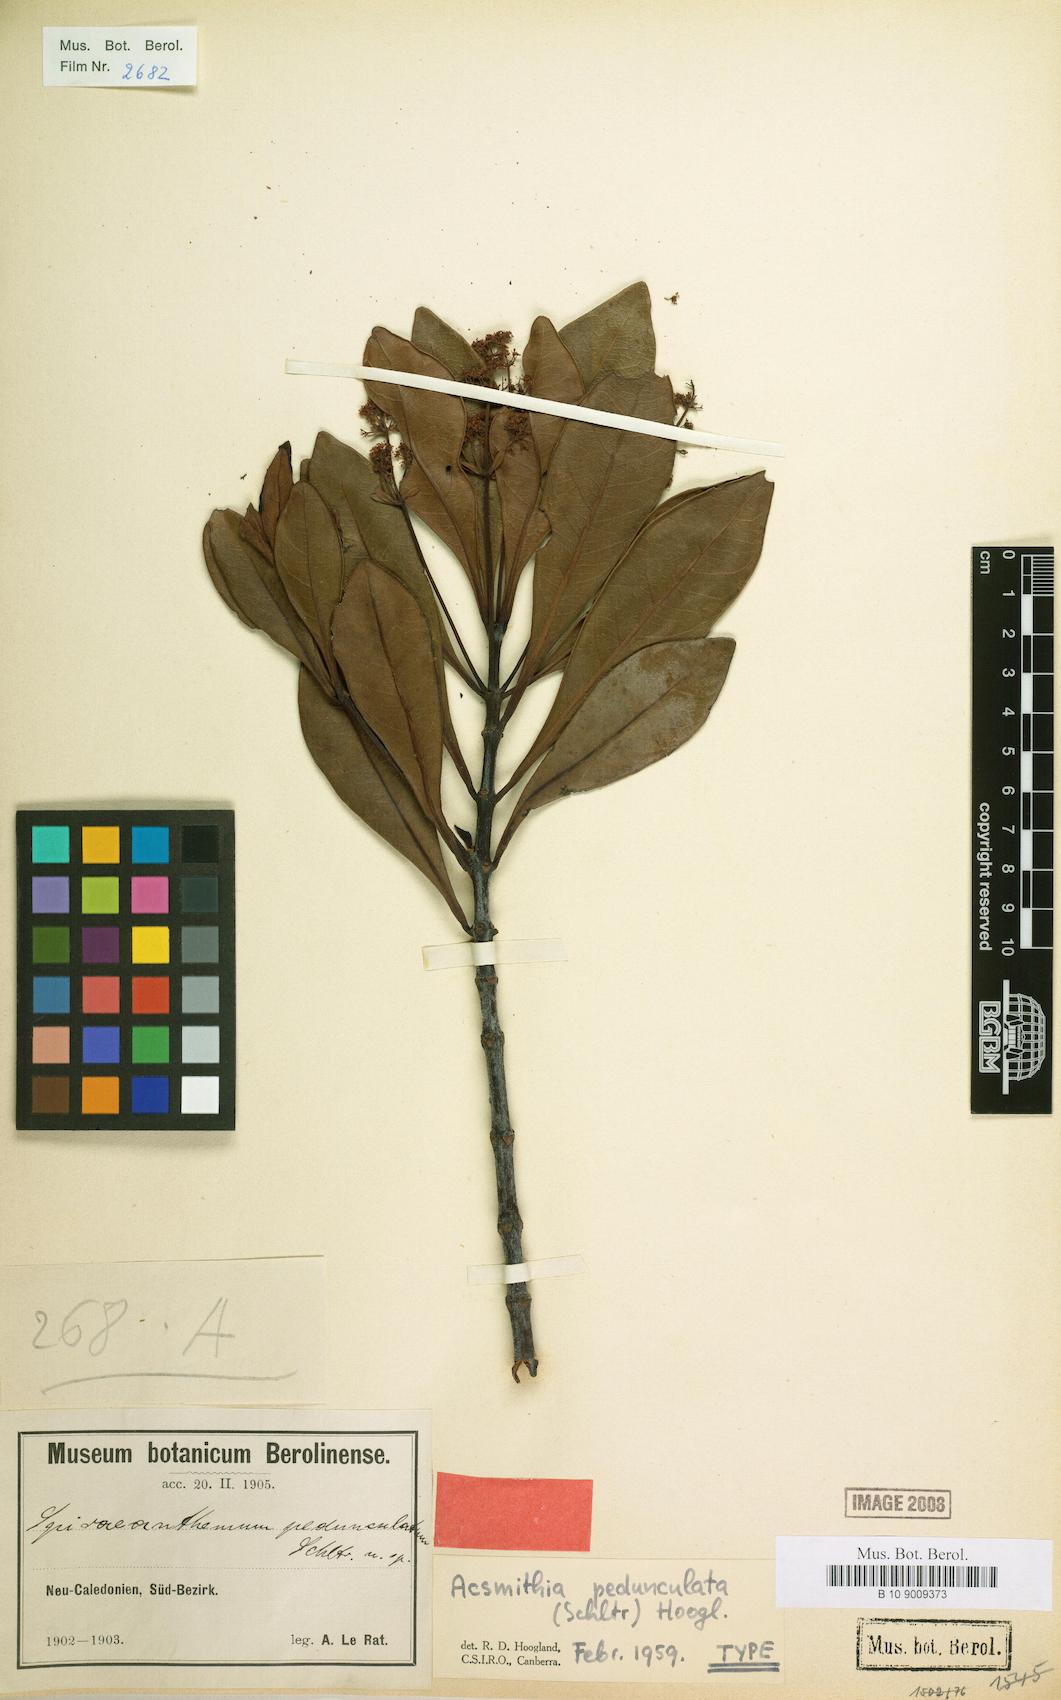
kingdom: Plantae
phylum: Tracheophyta
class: Magnoliopsida
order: Oxalidales
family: Cunoniaceae
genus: Spiraeanthemum
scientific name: Spiraeanthemum pedunculatum
